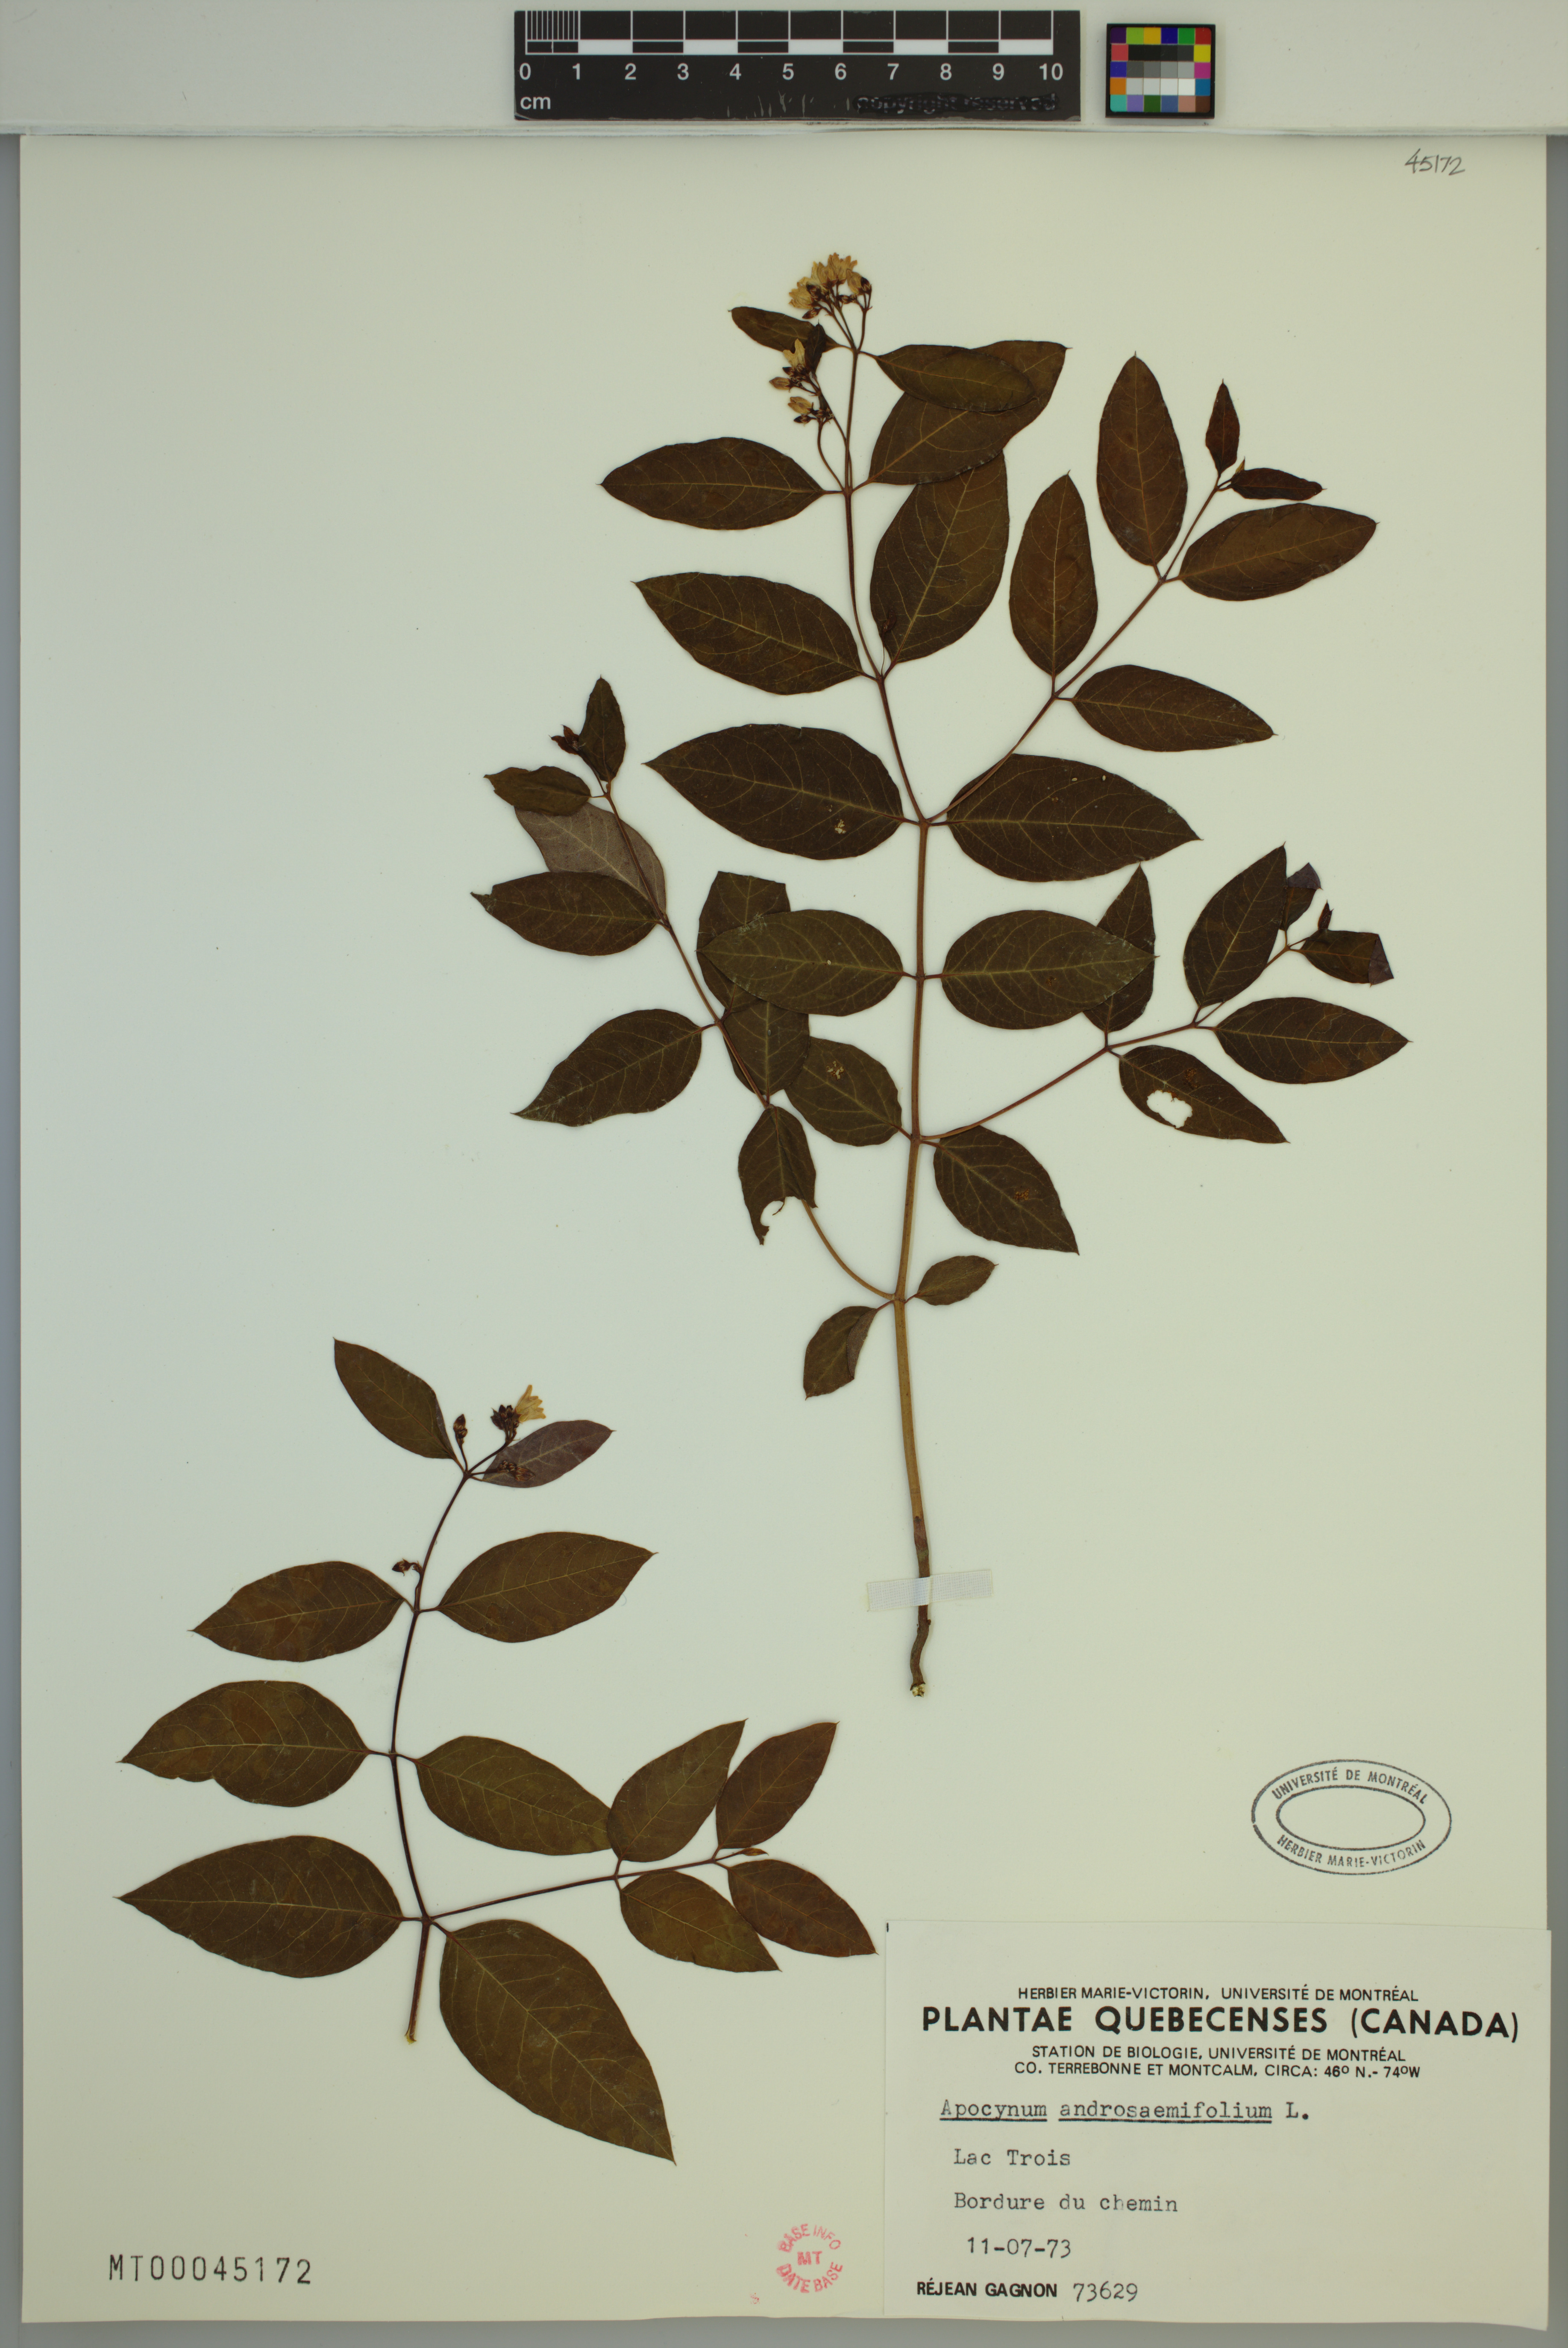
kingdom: Plantae
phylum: Tracheophyta
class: Magnoliopsida
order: Gentianales
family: Apocynaceae
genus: Apocynum
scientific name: Apocynum androsaemifolium
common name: Spreading dogbane
